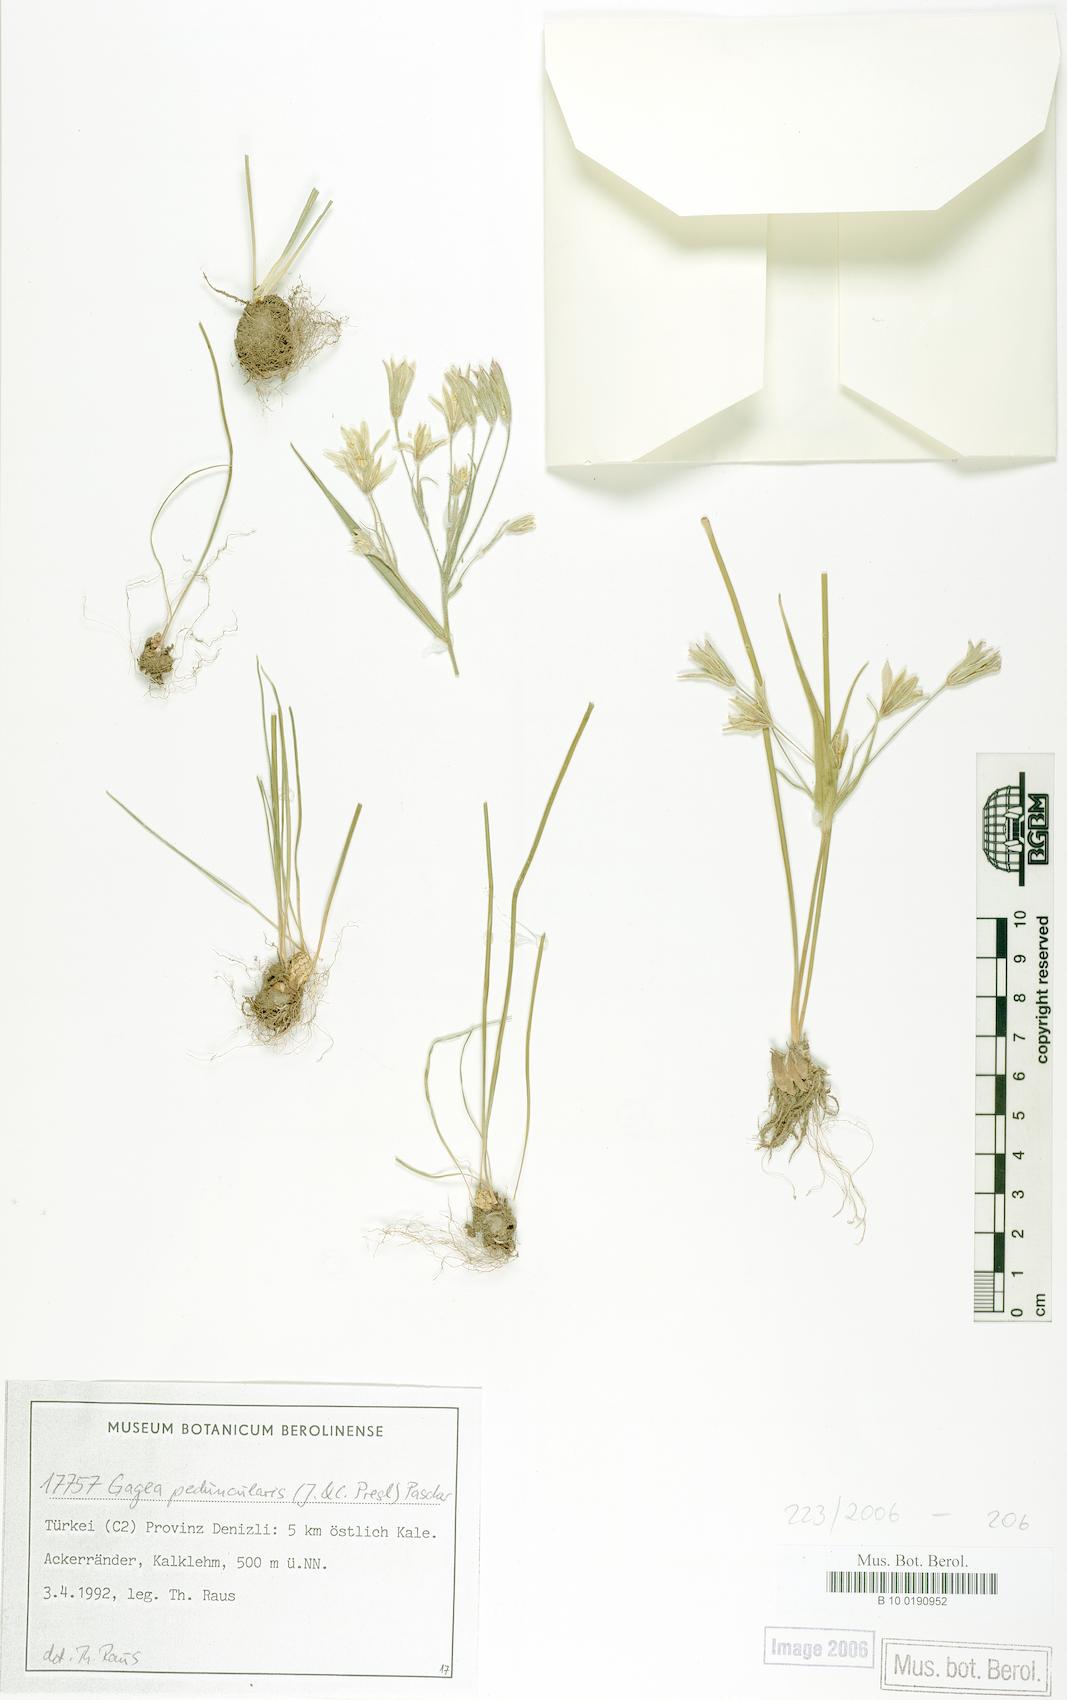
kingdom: Plantae
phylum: Tracheophyta
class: Liliopsida
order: Liliales
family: Liliaceae
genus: Gagea
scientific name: Gagea peduncularis
